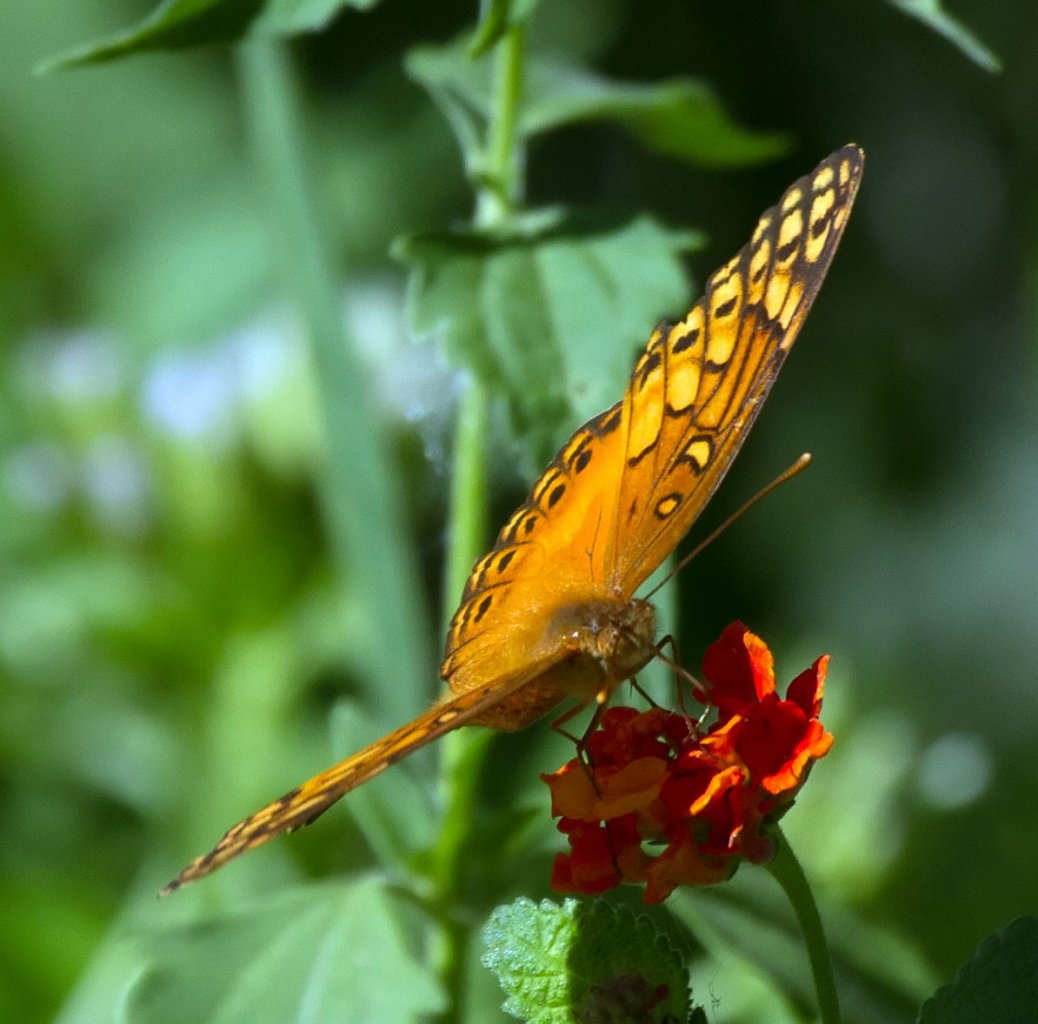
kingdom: Animalia
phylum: Arthropoda
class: Insecta
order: Lepidoptera
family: Nymphalidae
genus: Euptoieta
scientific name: Euptoieta hegesia
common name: Mexican Fritillary
